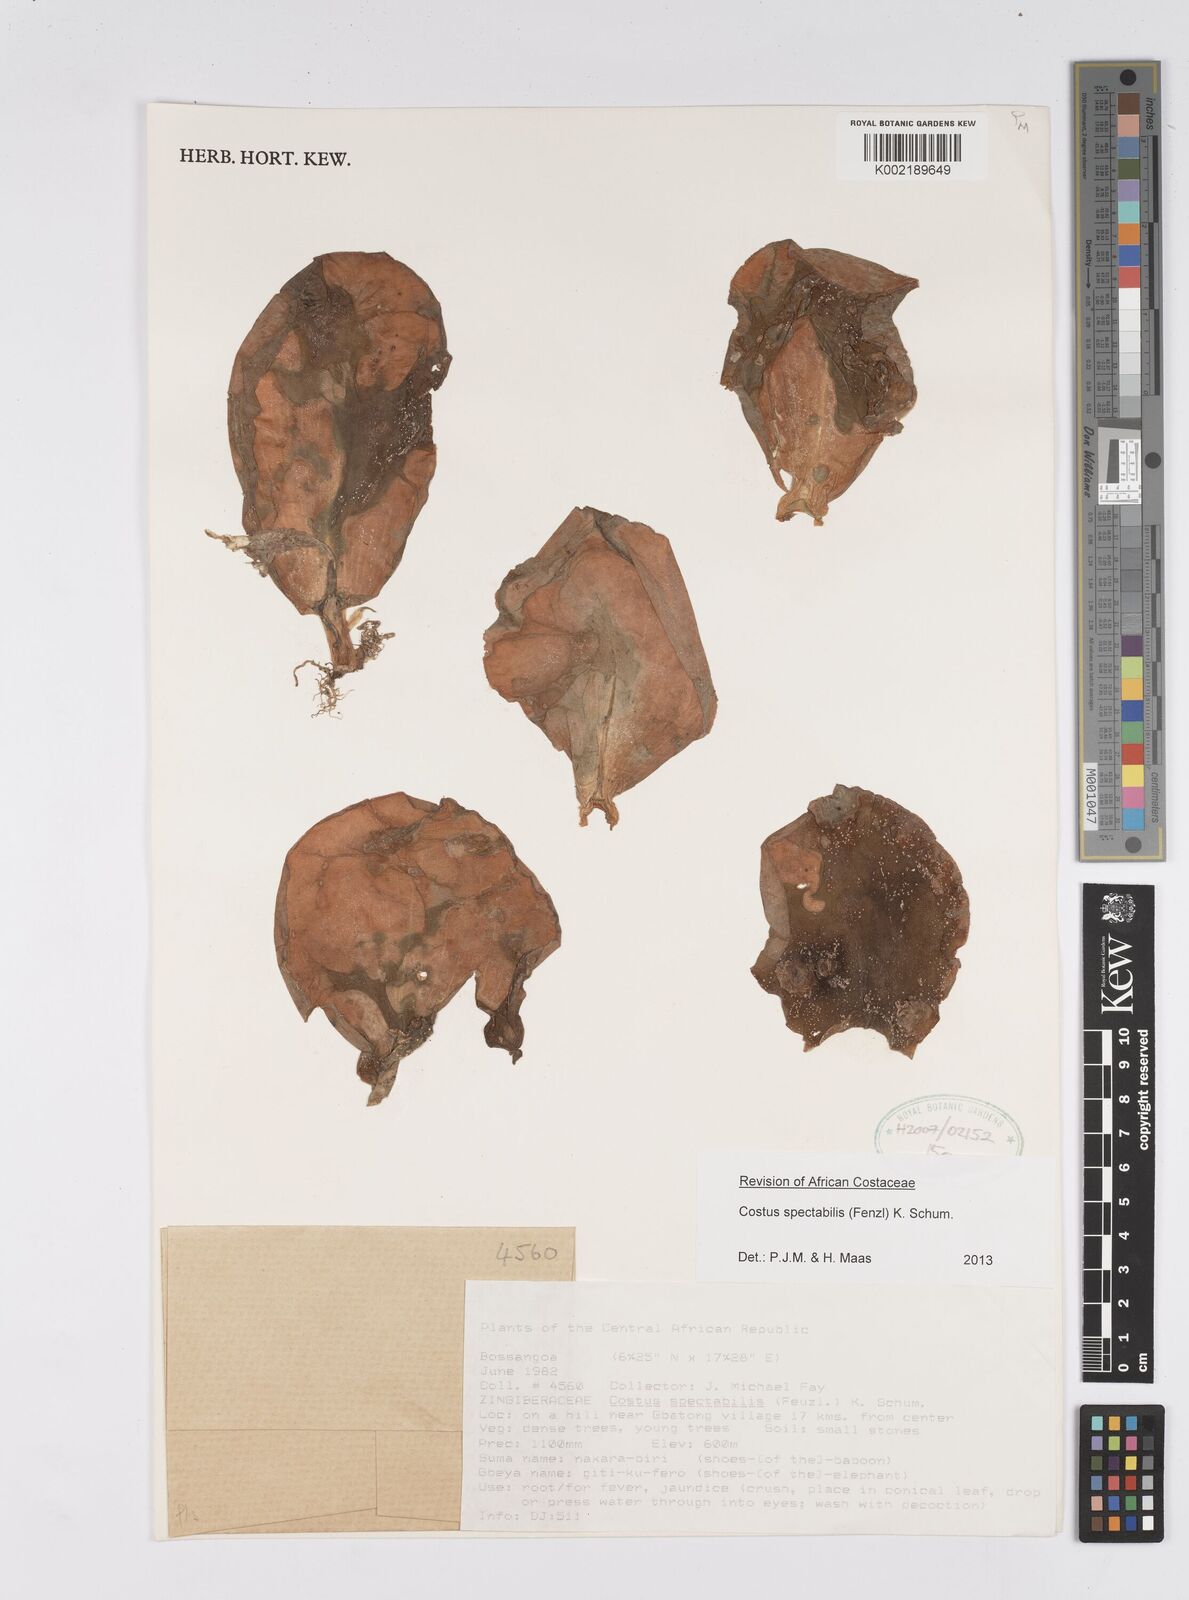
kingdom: Plantae
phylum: Tracheophyta
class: Liliopsida
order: Zingiberales
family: Costaceae
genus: Costus
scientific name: Costus spectabilis
